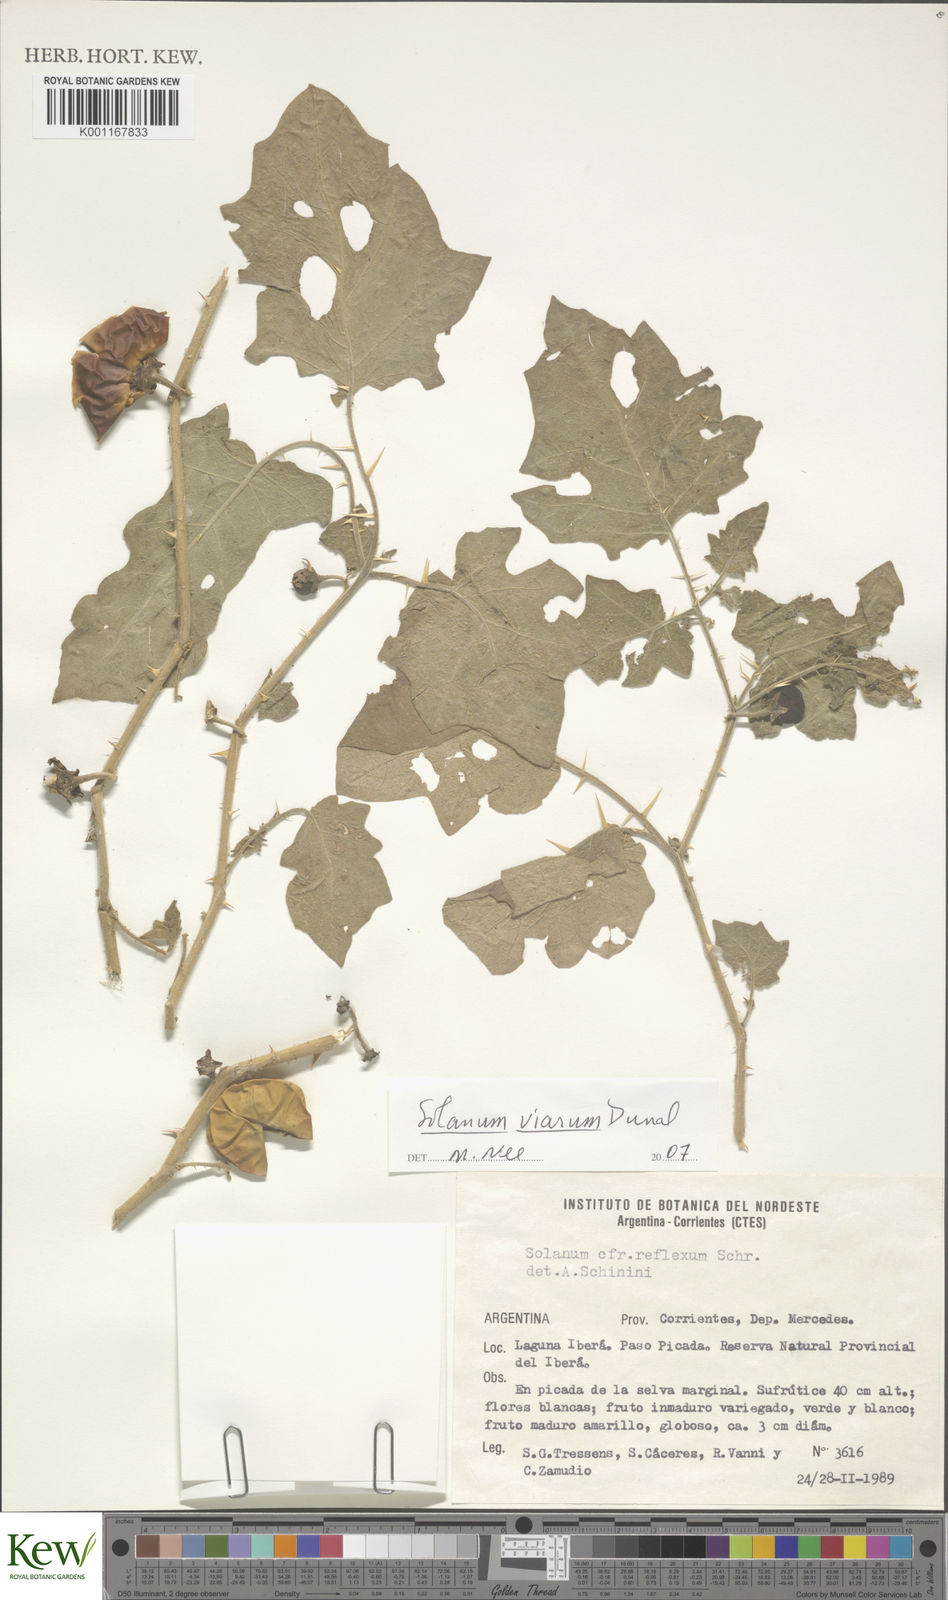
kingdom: Plantae
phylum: Tracheophyta
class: Magnoliopsida
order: Solanales
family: Solanaceae
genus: Solanum
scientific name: Solanum aculeatissimum
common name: Dutch eggplant
